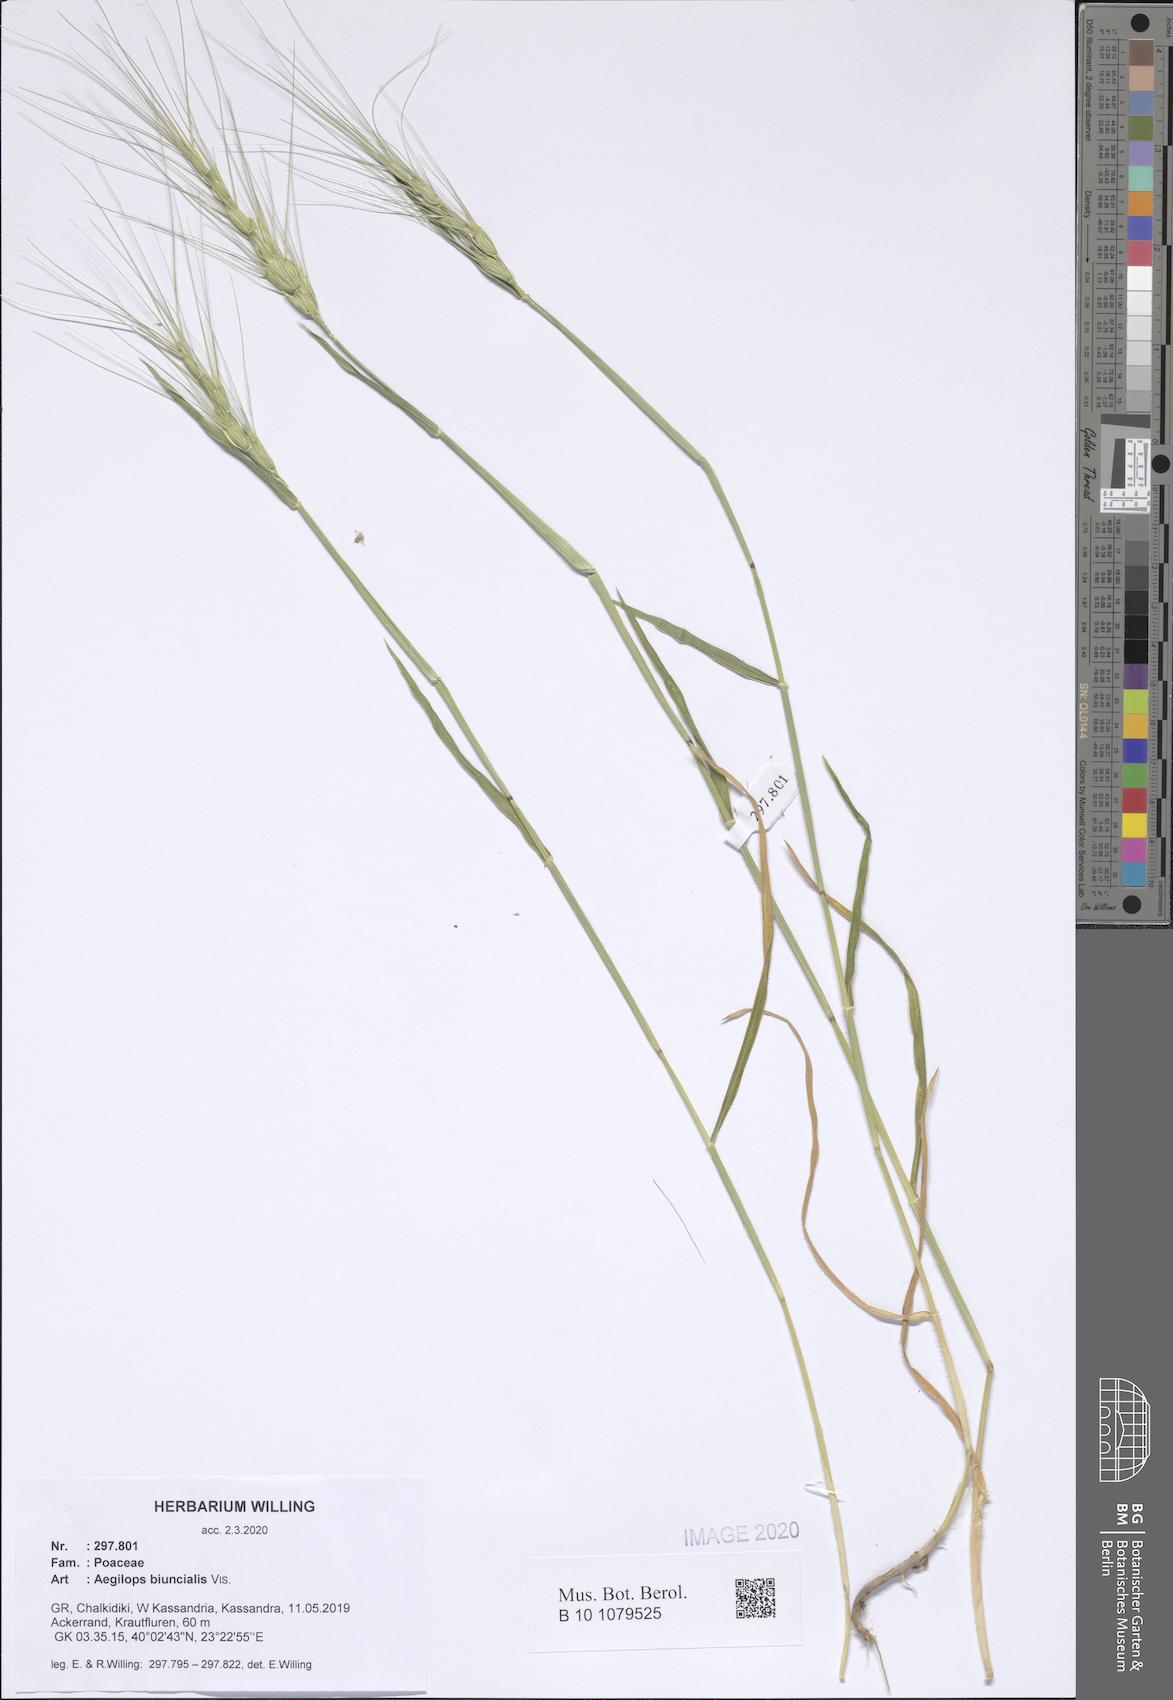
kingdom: Plantae
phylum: Tracheophyta
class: Liliopsida
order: Poales
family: Poaceae
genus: Aegilops
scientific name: Aegilops biuncialis
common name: Mediterranean aegilops
